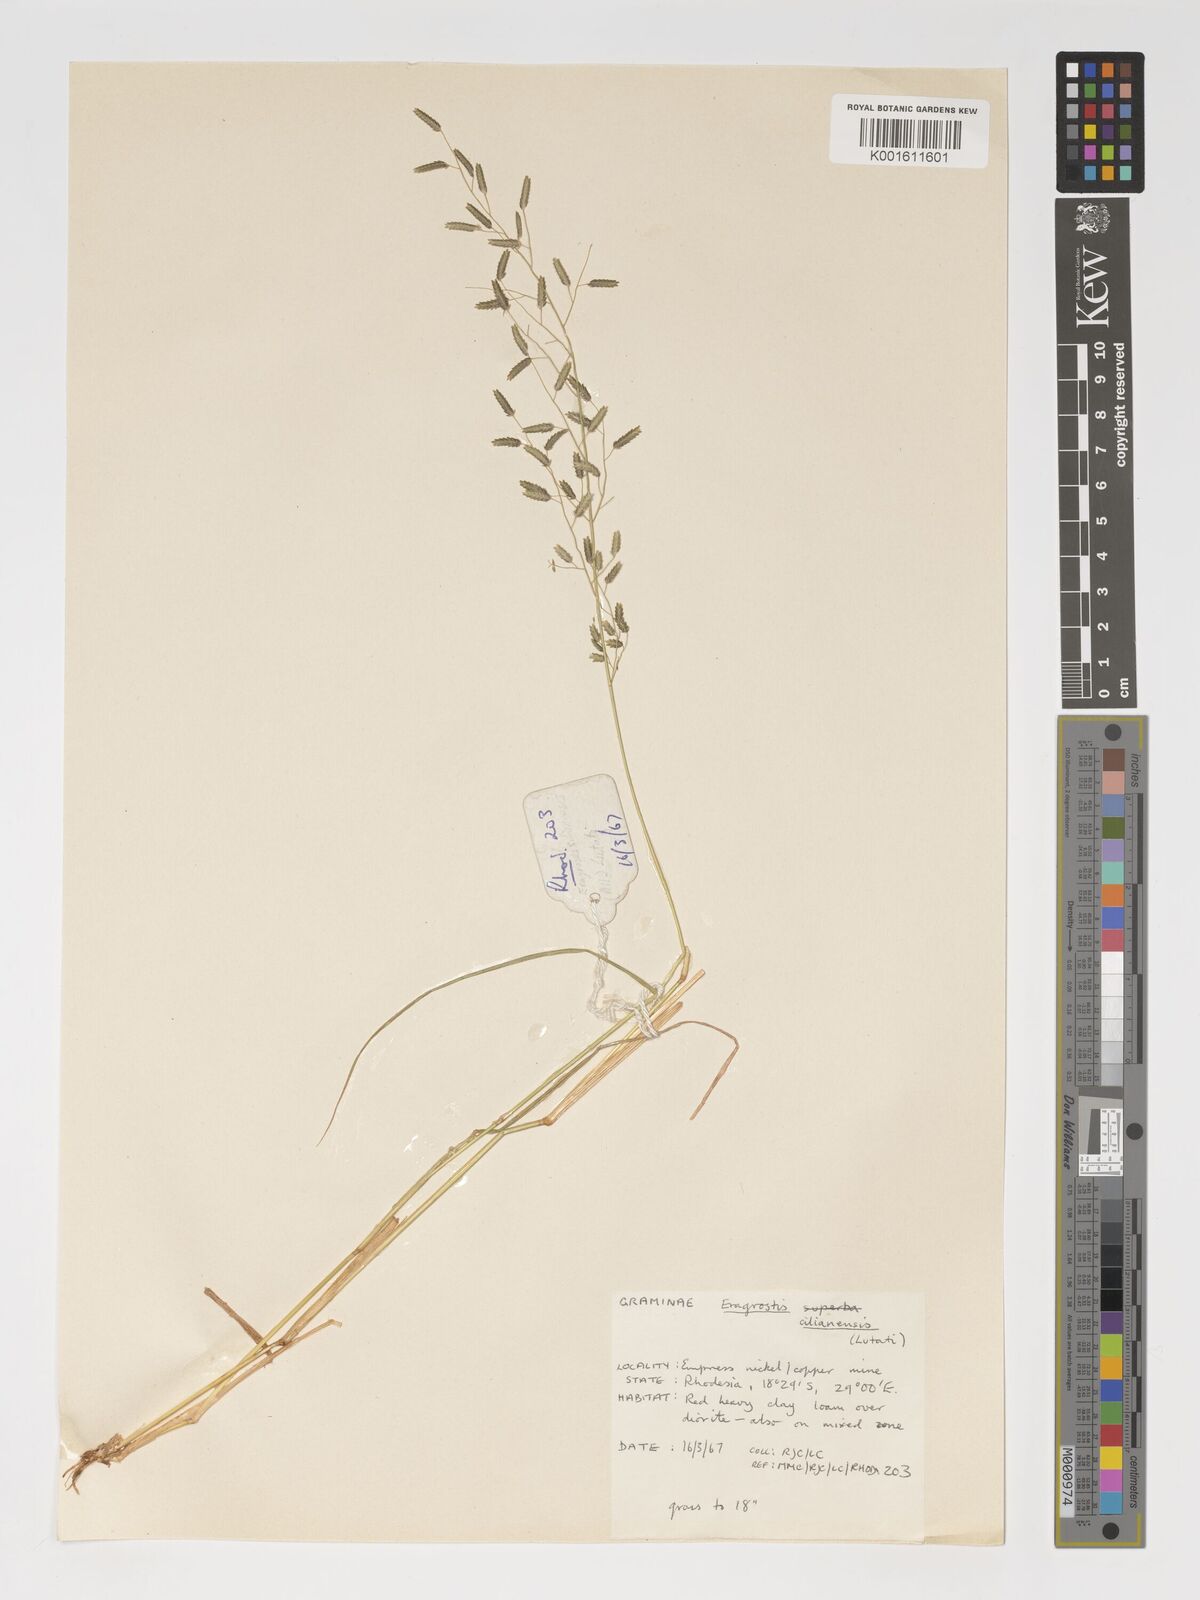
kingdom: Plantae
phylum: Tracheophyta
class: Liliopsida
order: Poales
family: Poaceae
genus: Eragrostis
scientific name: Eragrostis cilianensis
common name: Stinkgrass
